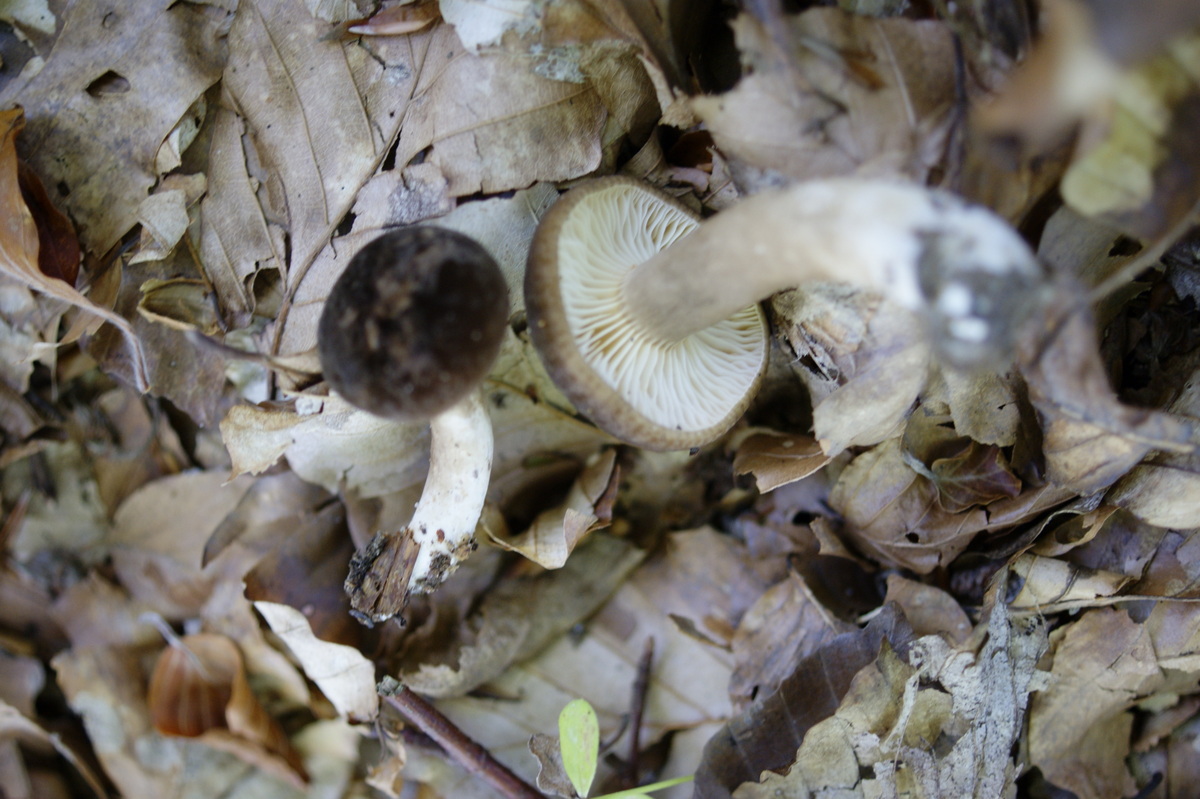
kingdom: Fungi
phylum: Basidiomycota
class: Agaricomycetes
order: Russulales
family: Russulaceae
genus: Lactarius
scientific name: Lactarius romagnesii
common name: fjernbladet mælkehat
